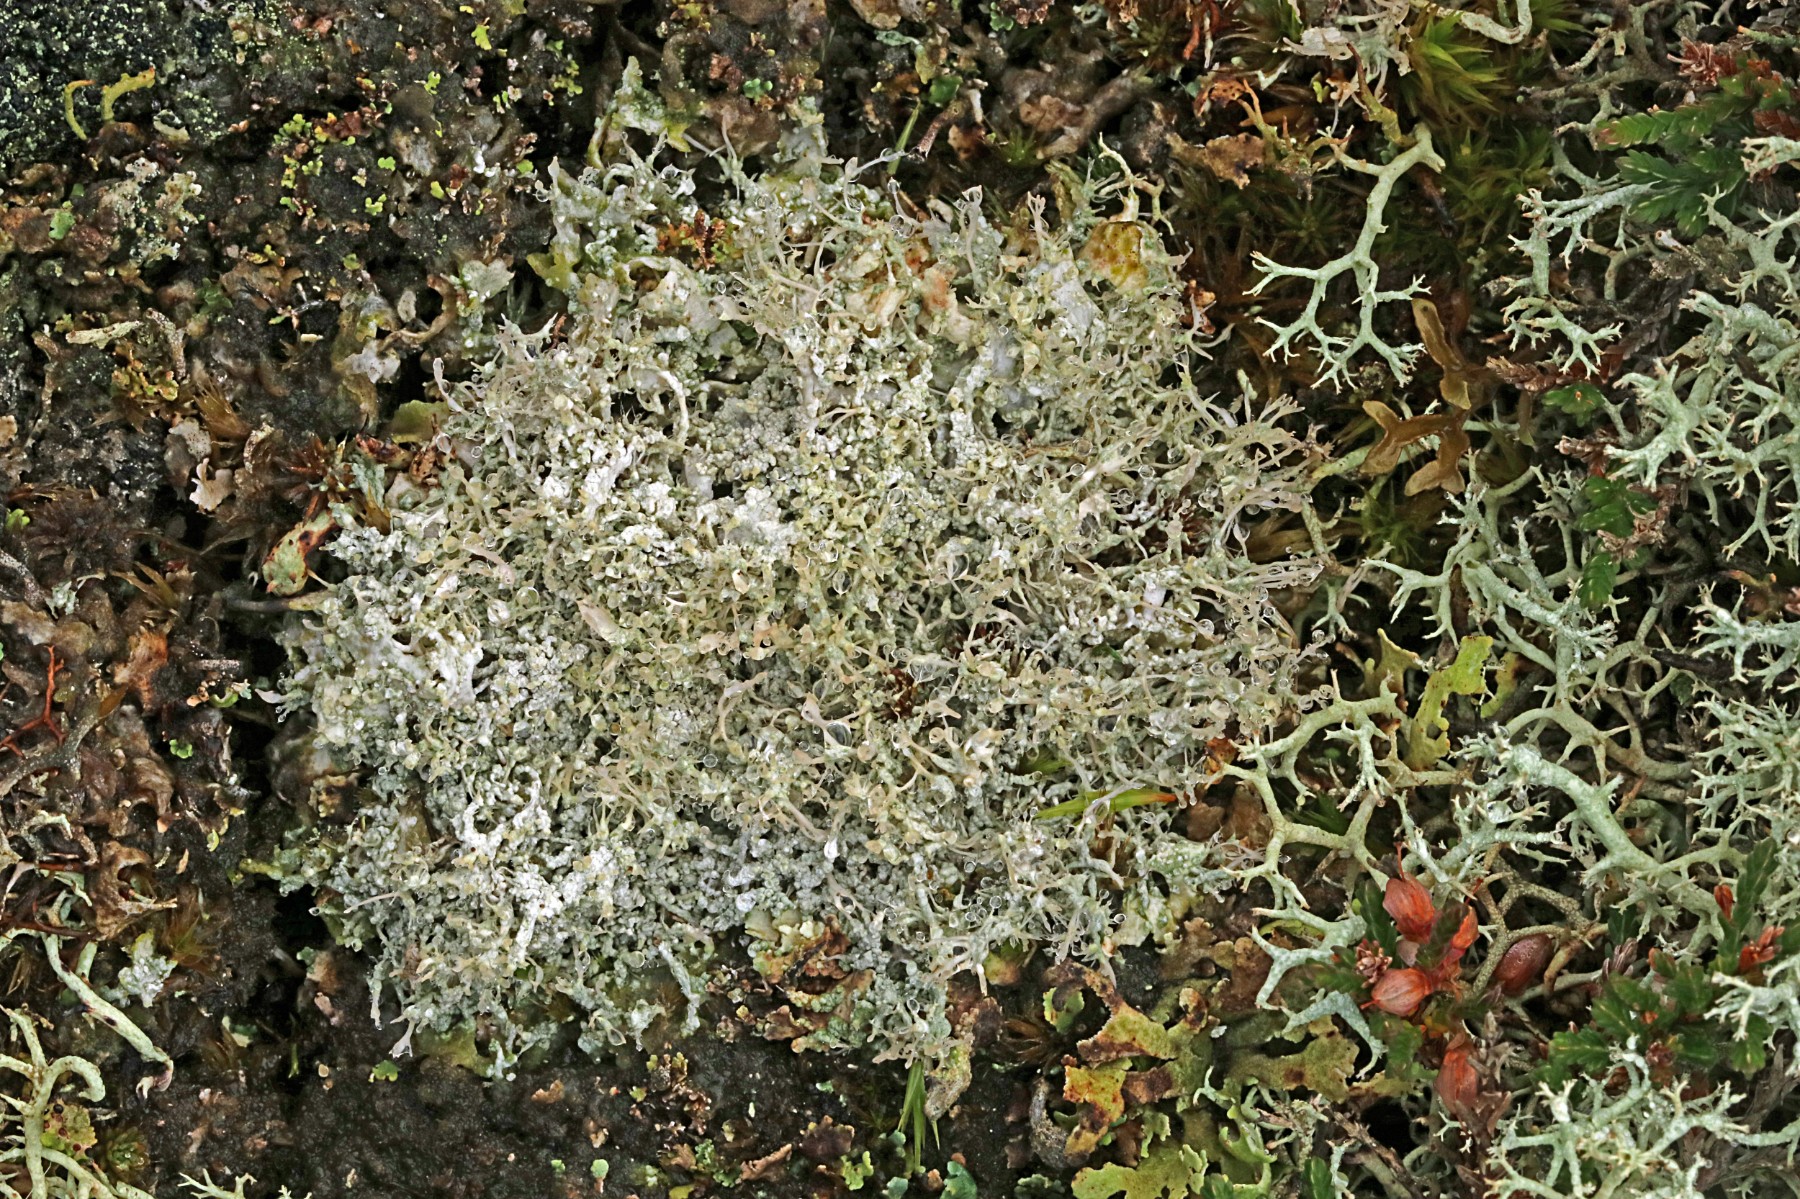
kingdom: Fungi
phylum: Ascomycota
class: Lecanoromycetes
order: Pertusariales
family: Ochrolechiaceae
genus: Ochrolechia
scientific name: Ochrolechia frigida
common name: fjeld-blegskivelav
